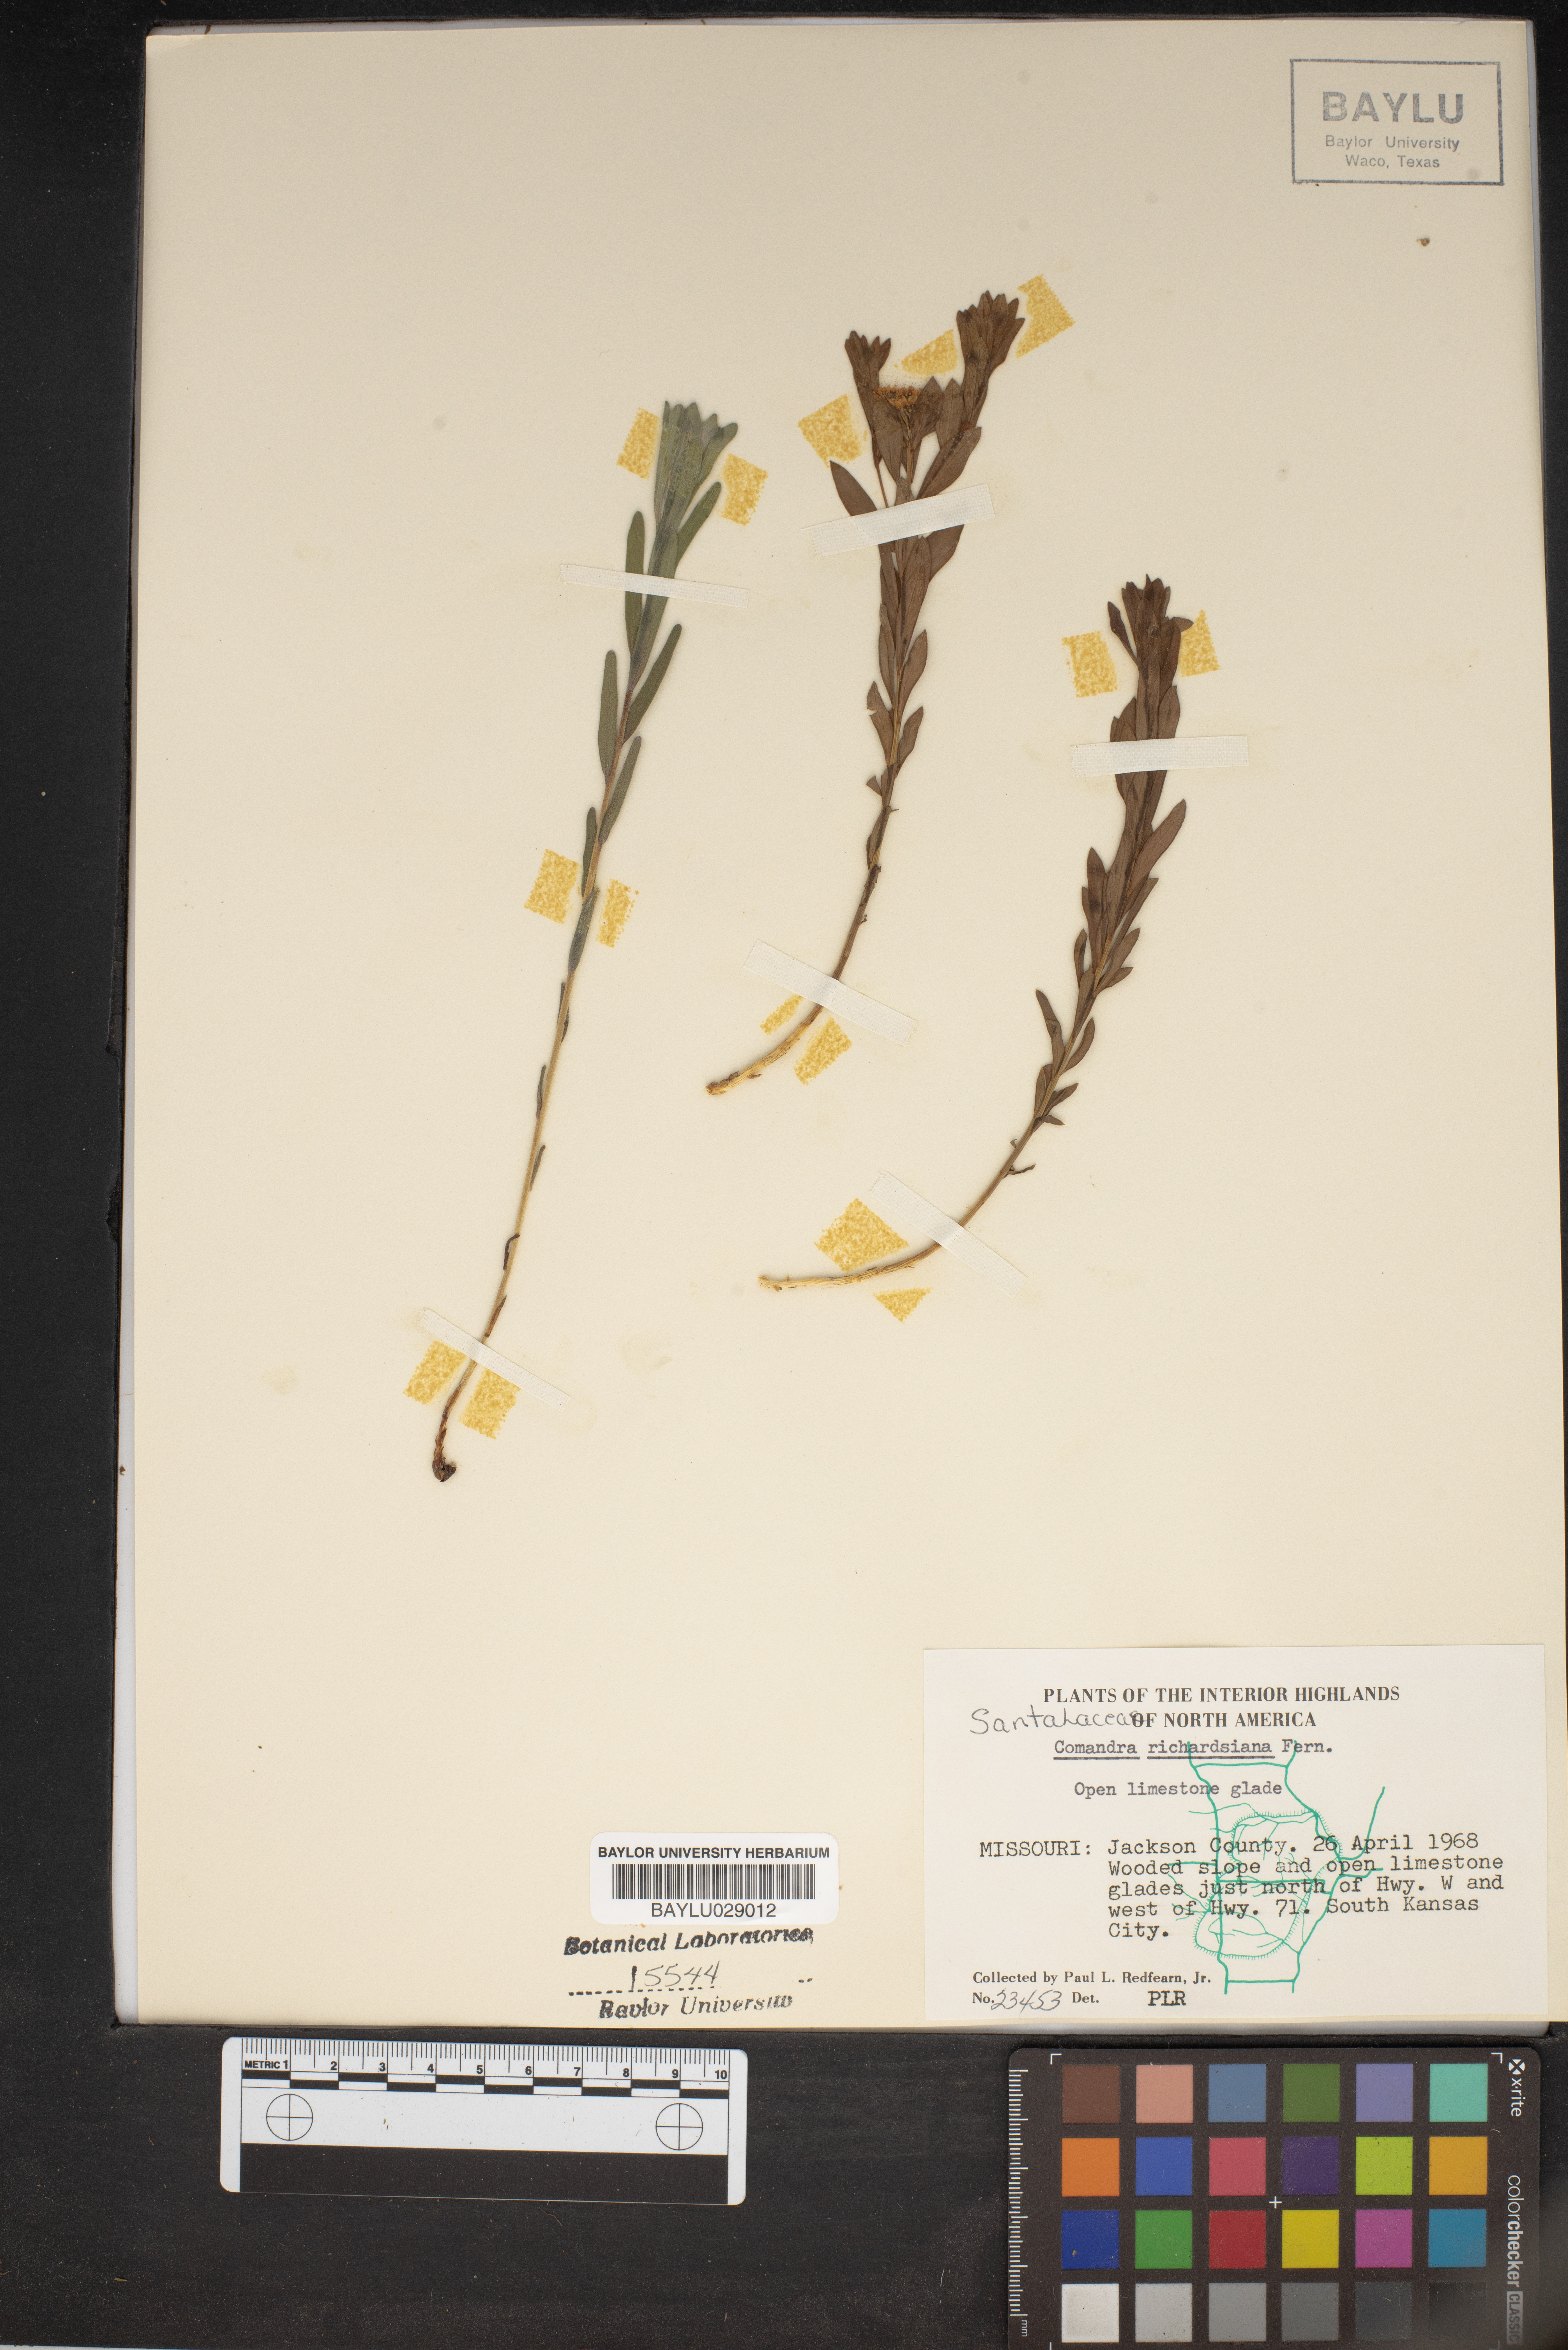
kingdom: Plantae
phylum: Tracheophyta
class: Magnoliopsida
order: Santalales
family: Comandraceae
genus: Comandra
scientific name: Comandra umbellata
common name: Bastard toadflax
